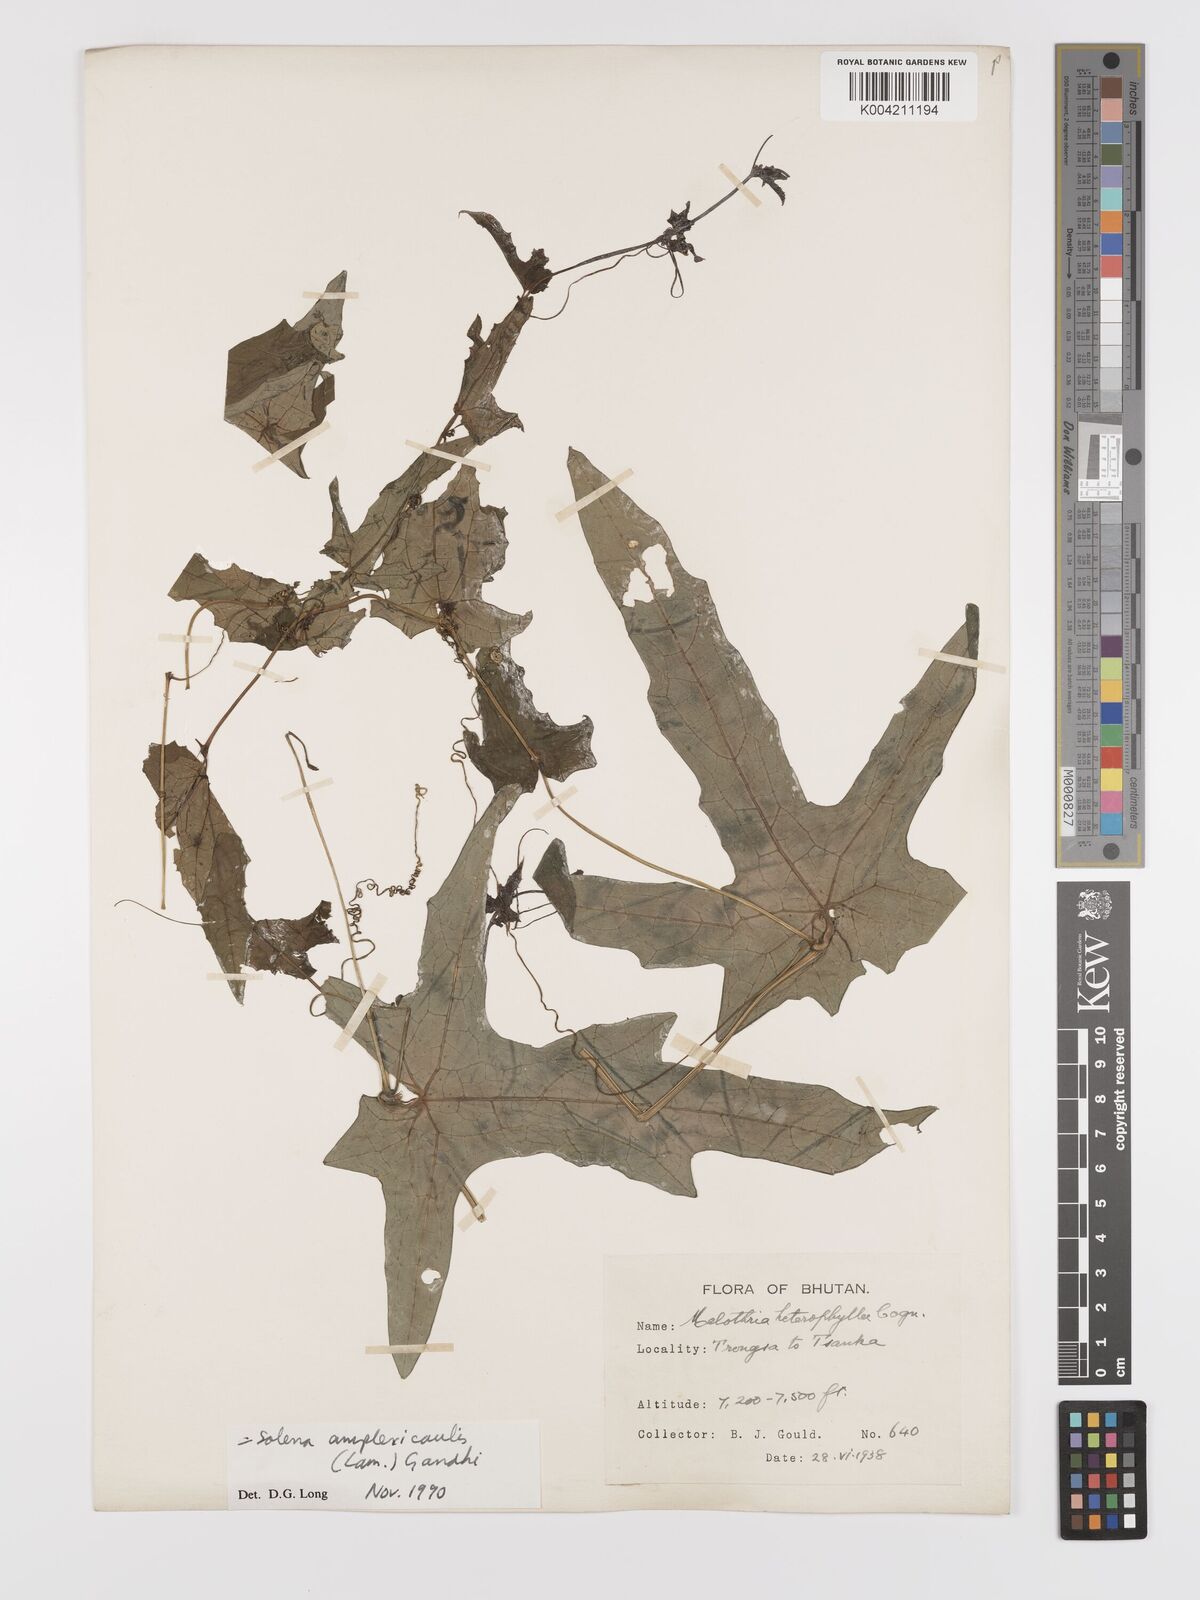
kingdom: Plantae
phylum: Tracheophyta
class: Magnoliopsida
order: Cucurbitales
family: Cucurbitaceae
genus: Solena
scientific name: Solena heterophylla
